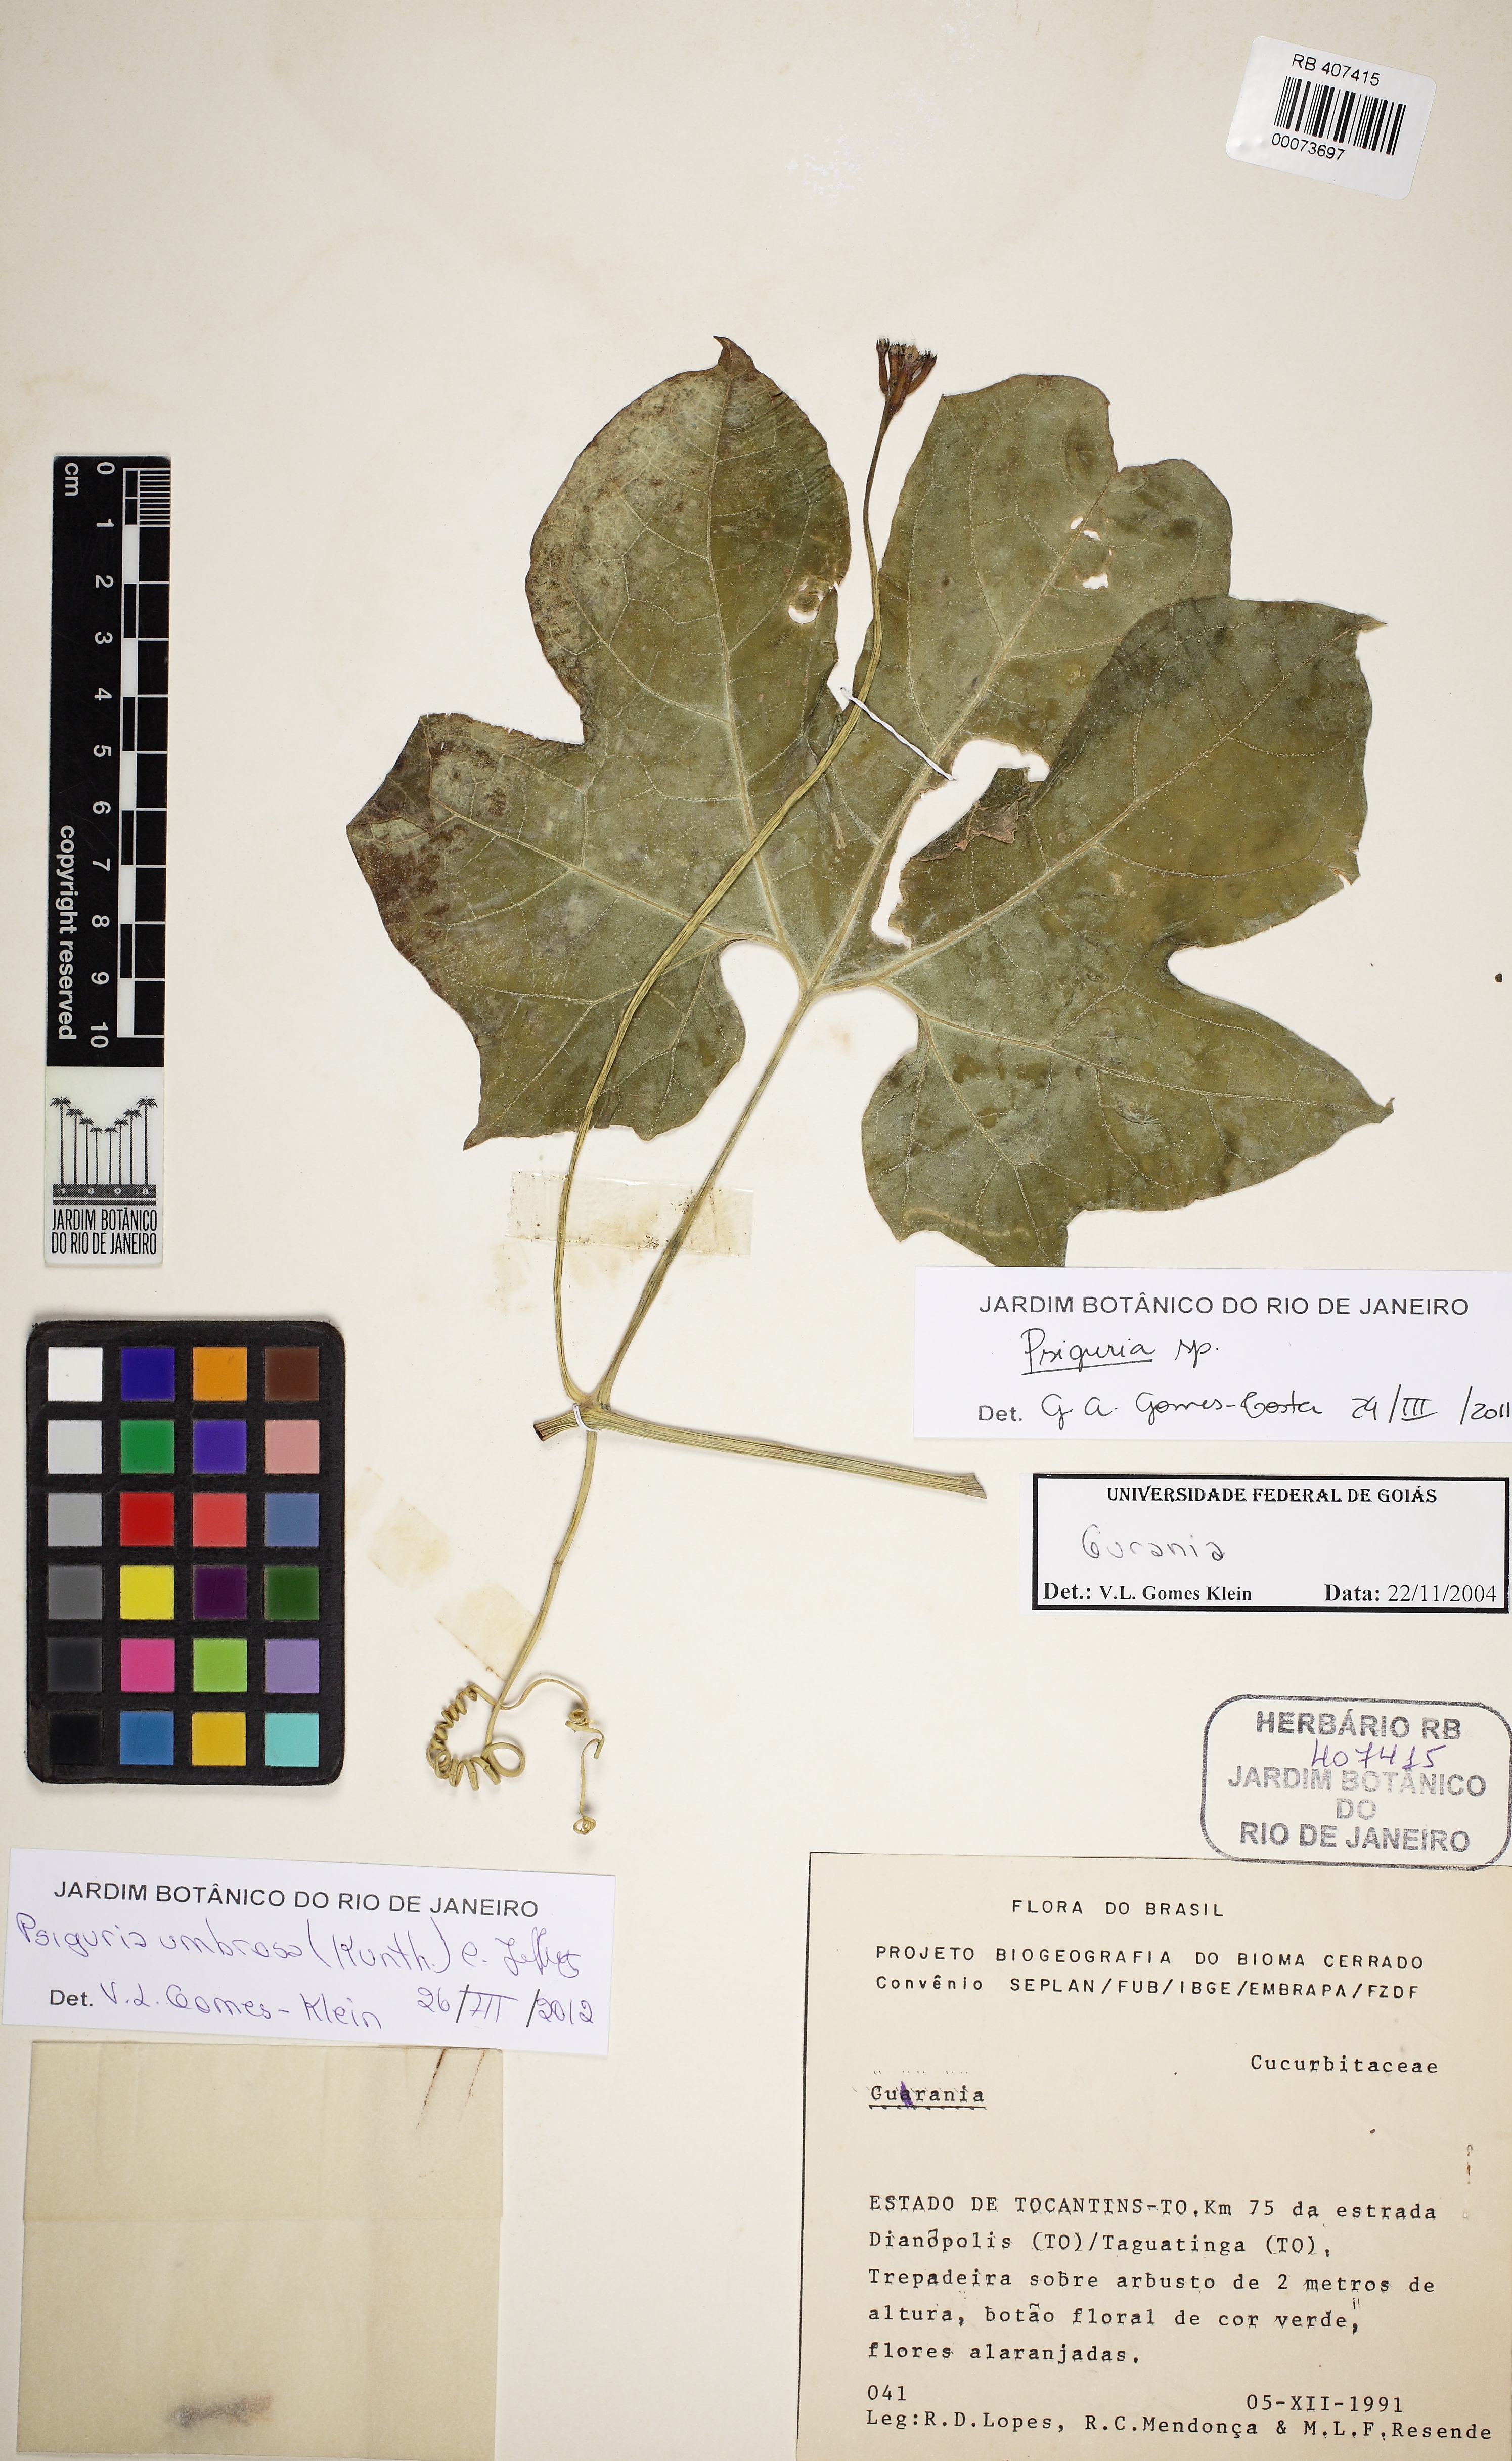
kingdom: Plantae
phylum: Tracheophyta
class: Magnoliopsida
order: Cucurbitales
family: Cucurbitaceae
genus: Psiguria
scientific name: Psiguria umbrosa
